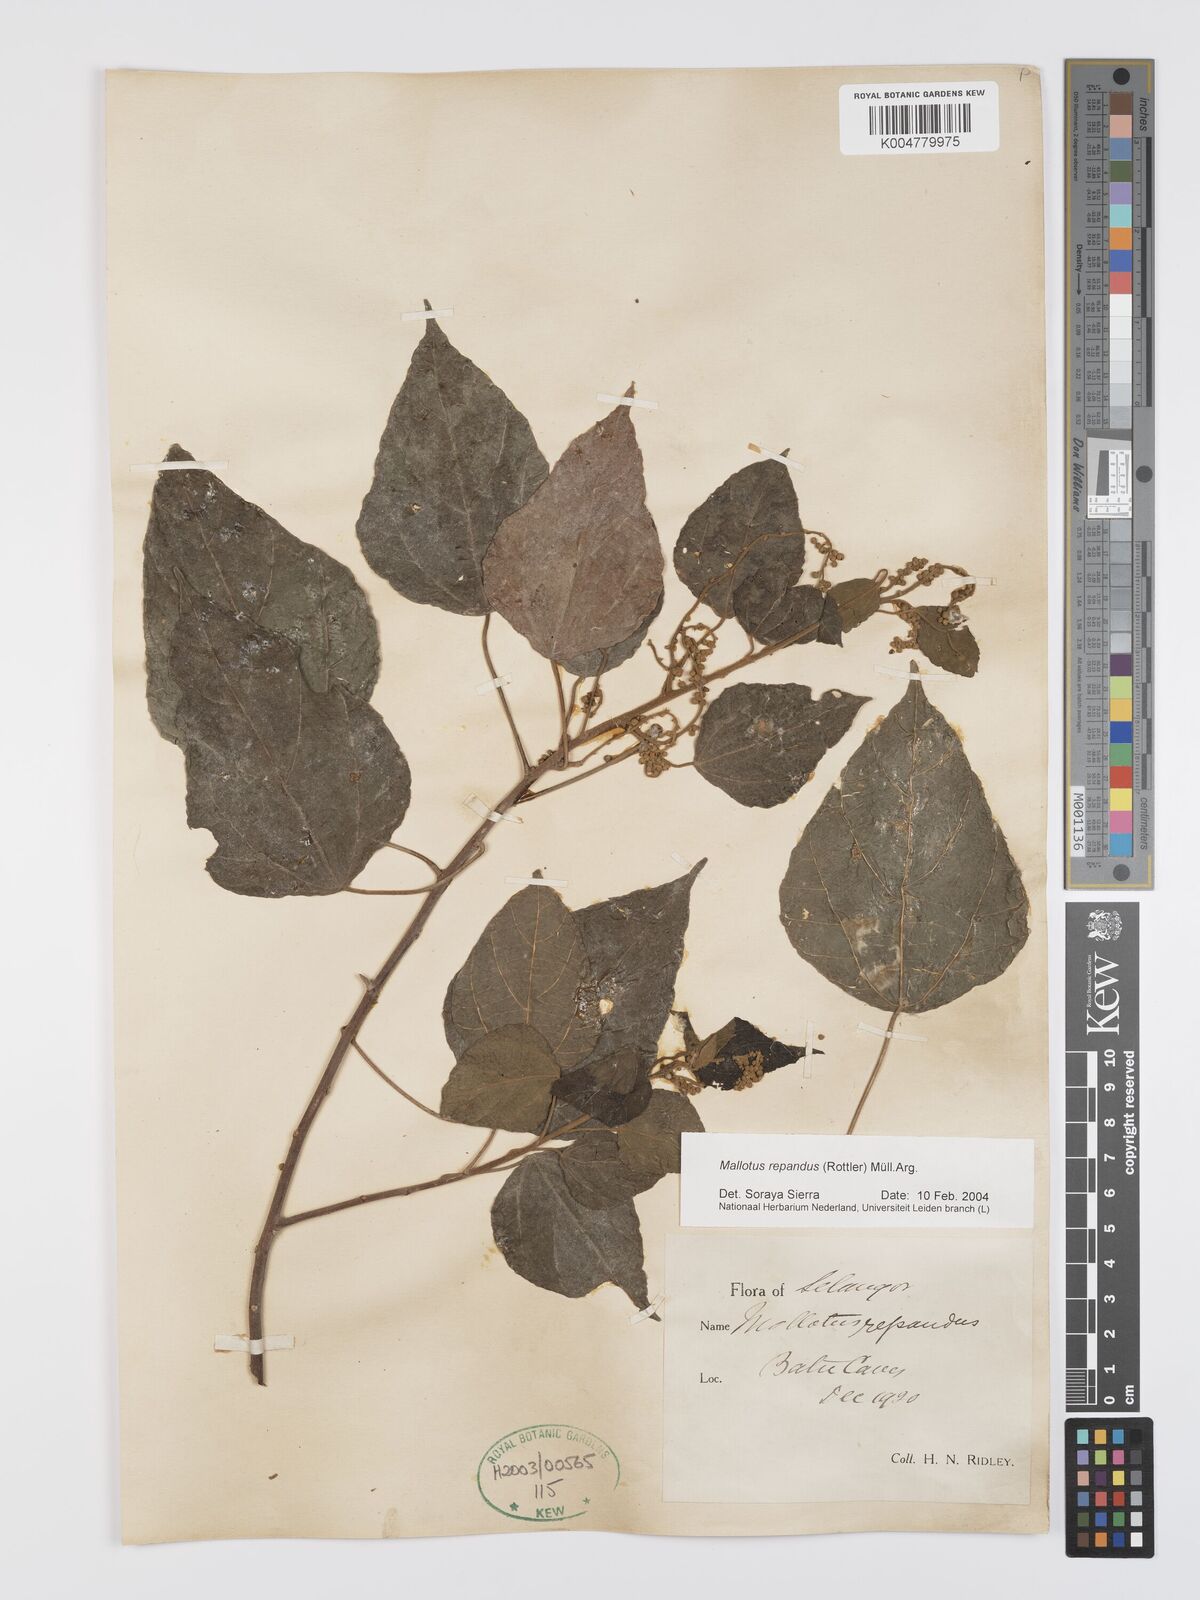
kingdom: Plantae
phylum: Tracheophyta
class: Magnoliopsida
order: Malpighiales
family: Euphorbiaceae
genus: Mallotus
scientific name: Mallotus repandus
